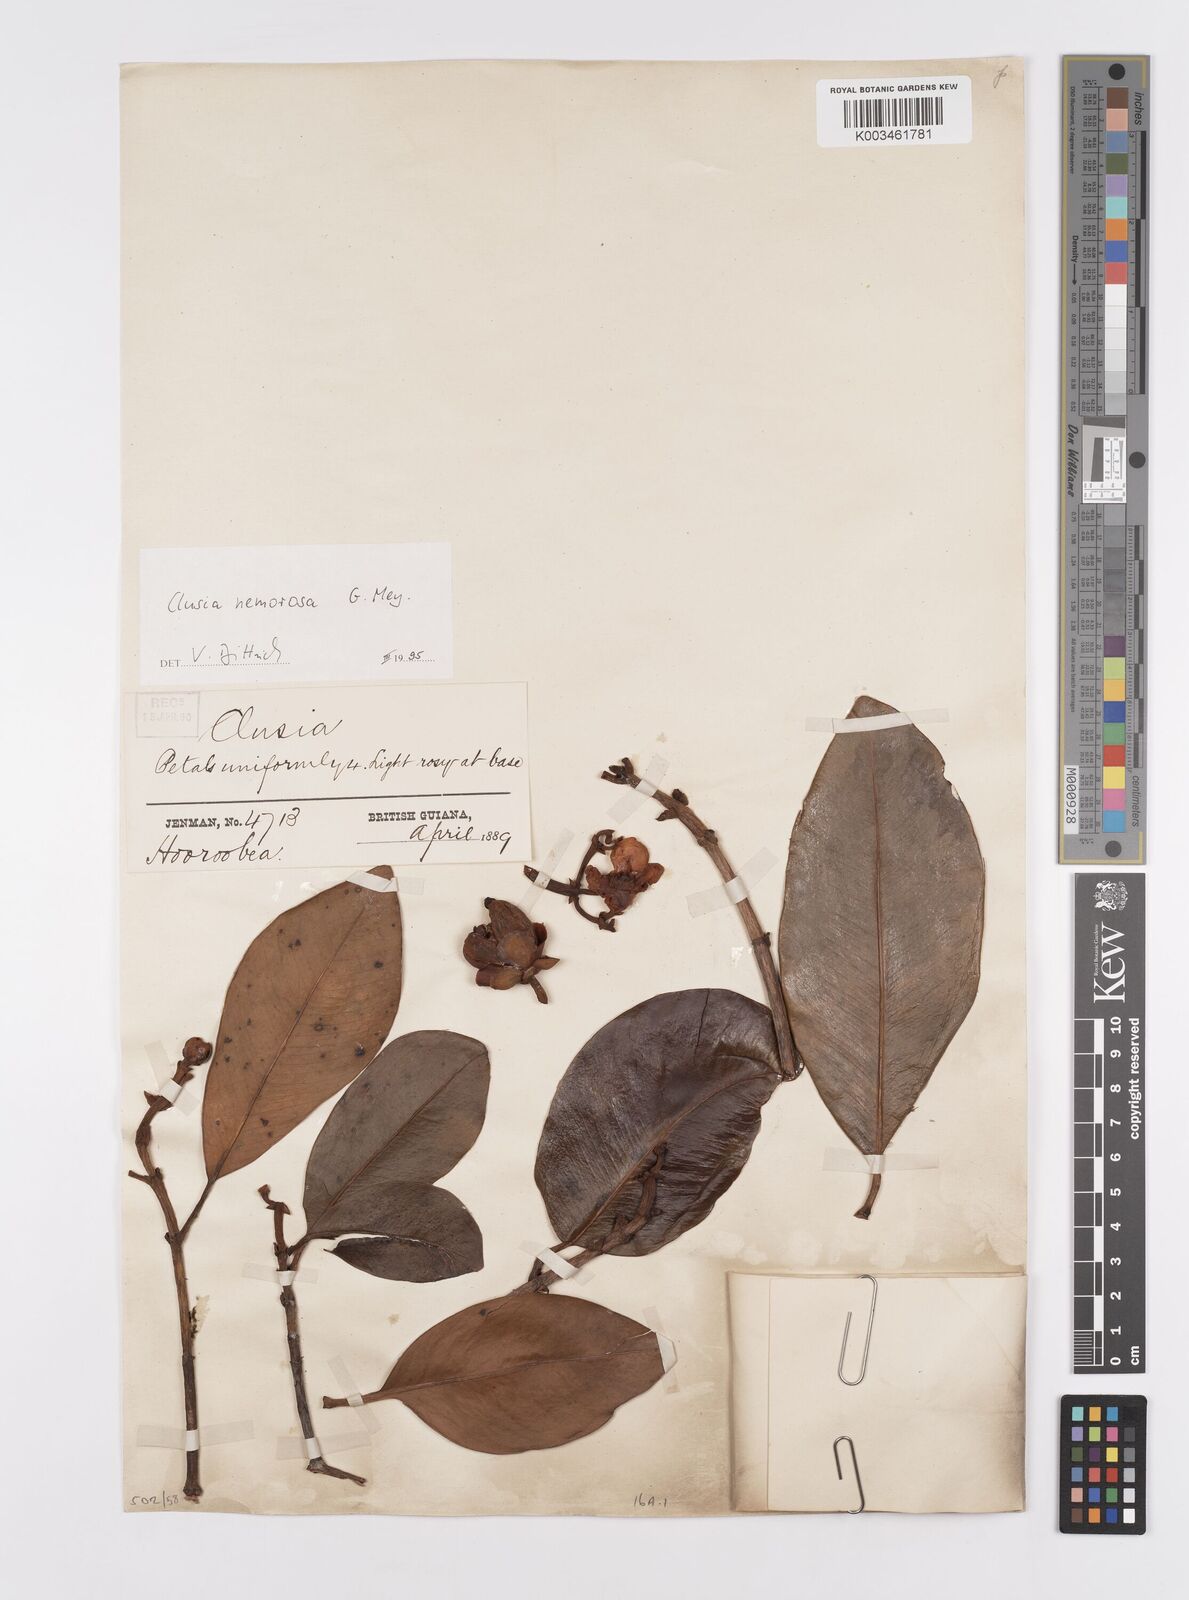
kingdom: Plantae
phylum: Tracheophyta
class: Magnoliopsida
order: Malpighiales
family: Clusiaceae
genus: Clusia
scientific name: Clusia nemorosa
